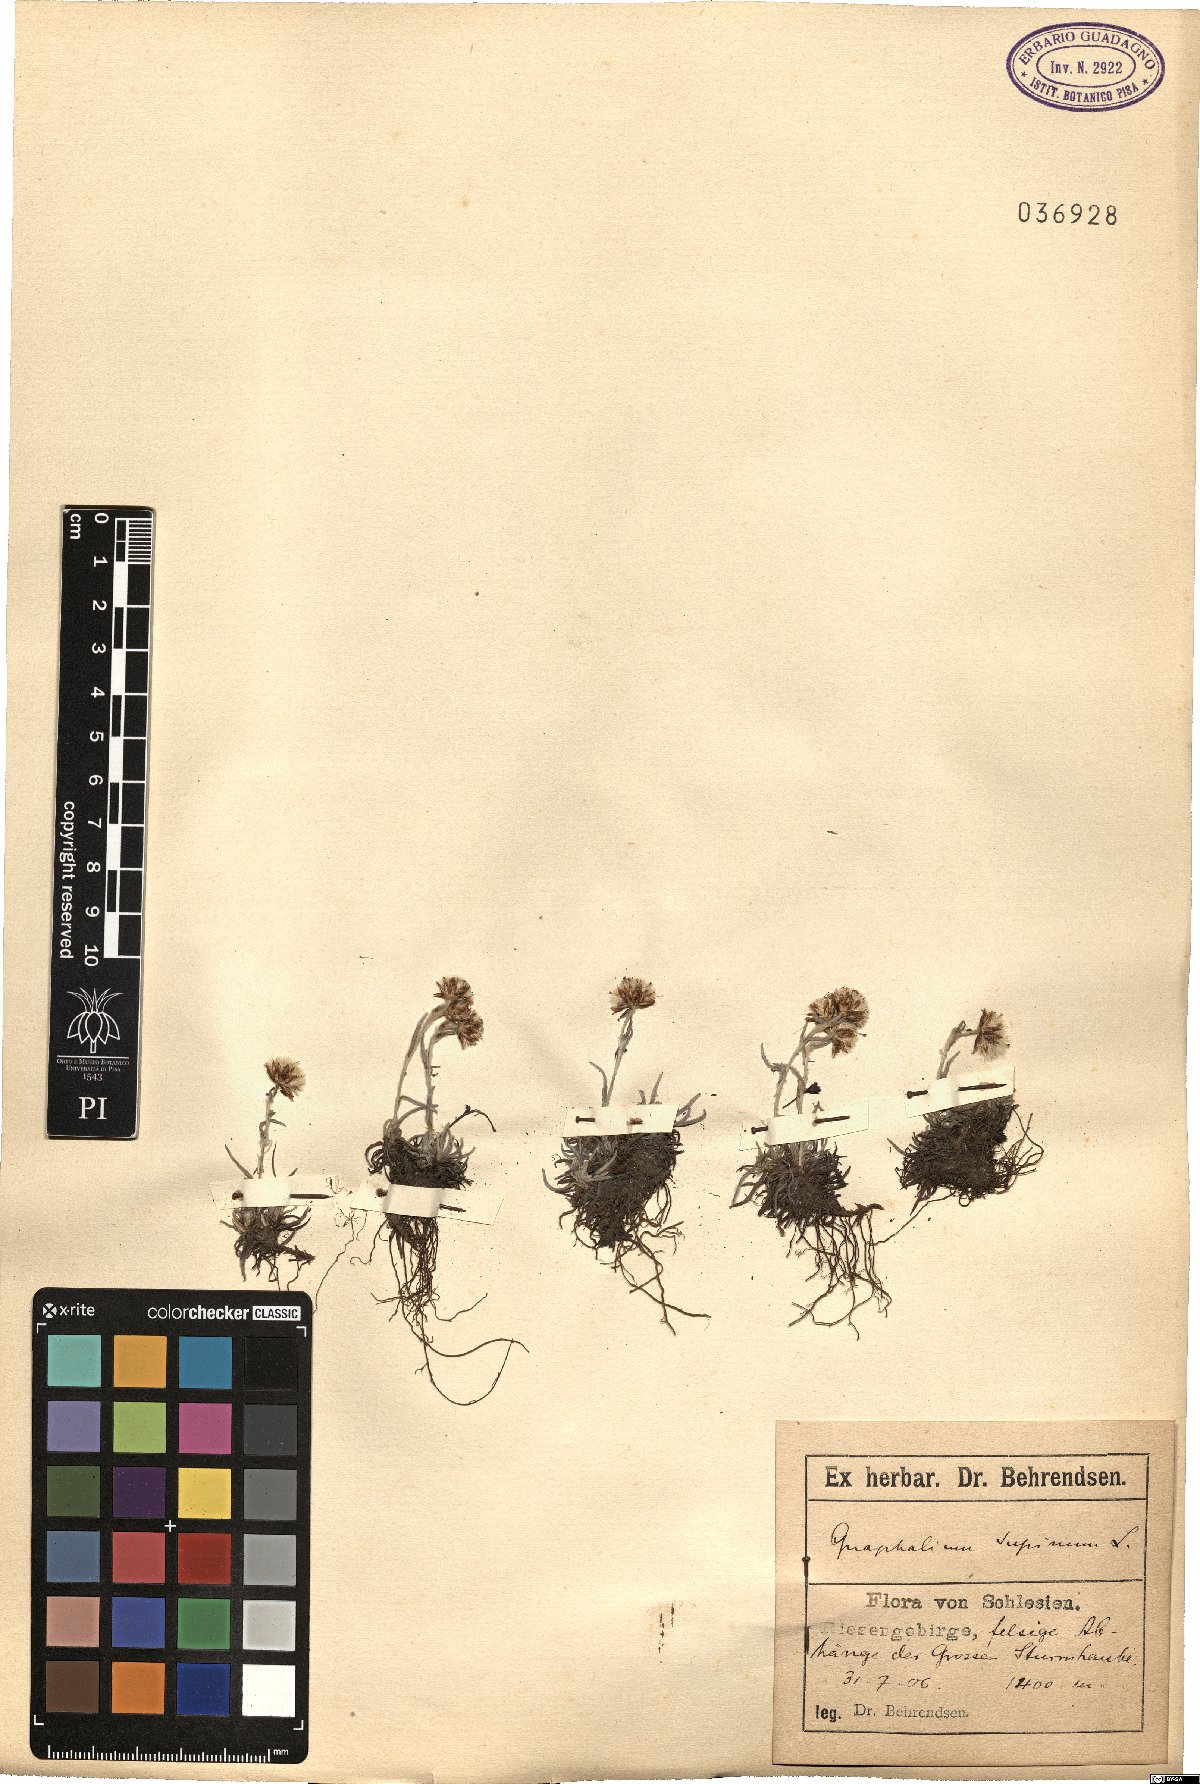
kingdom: Plantae
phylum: Tracheophyta
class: Magnoliopsida
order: Asterales
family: Asteraceae
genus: Omalotheca
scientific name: Omalotheca supina
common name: Alpine arctic-cudweed
